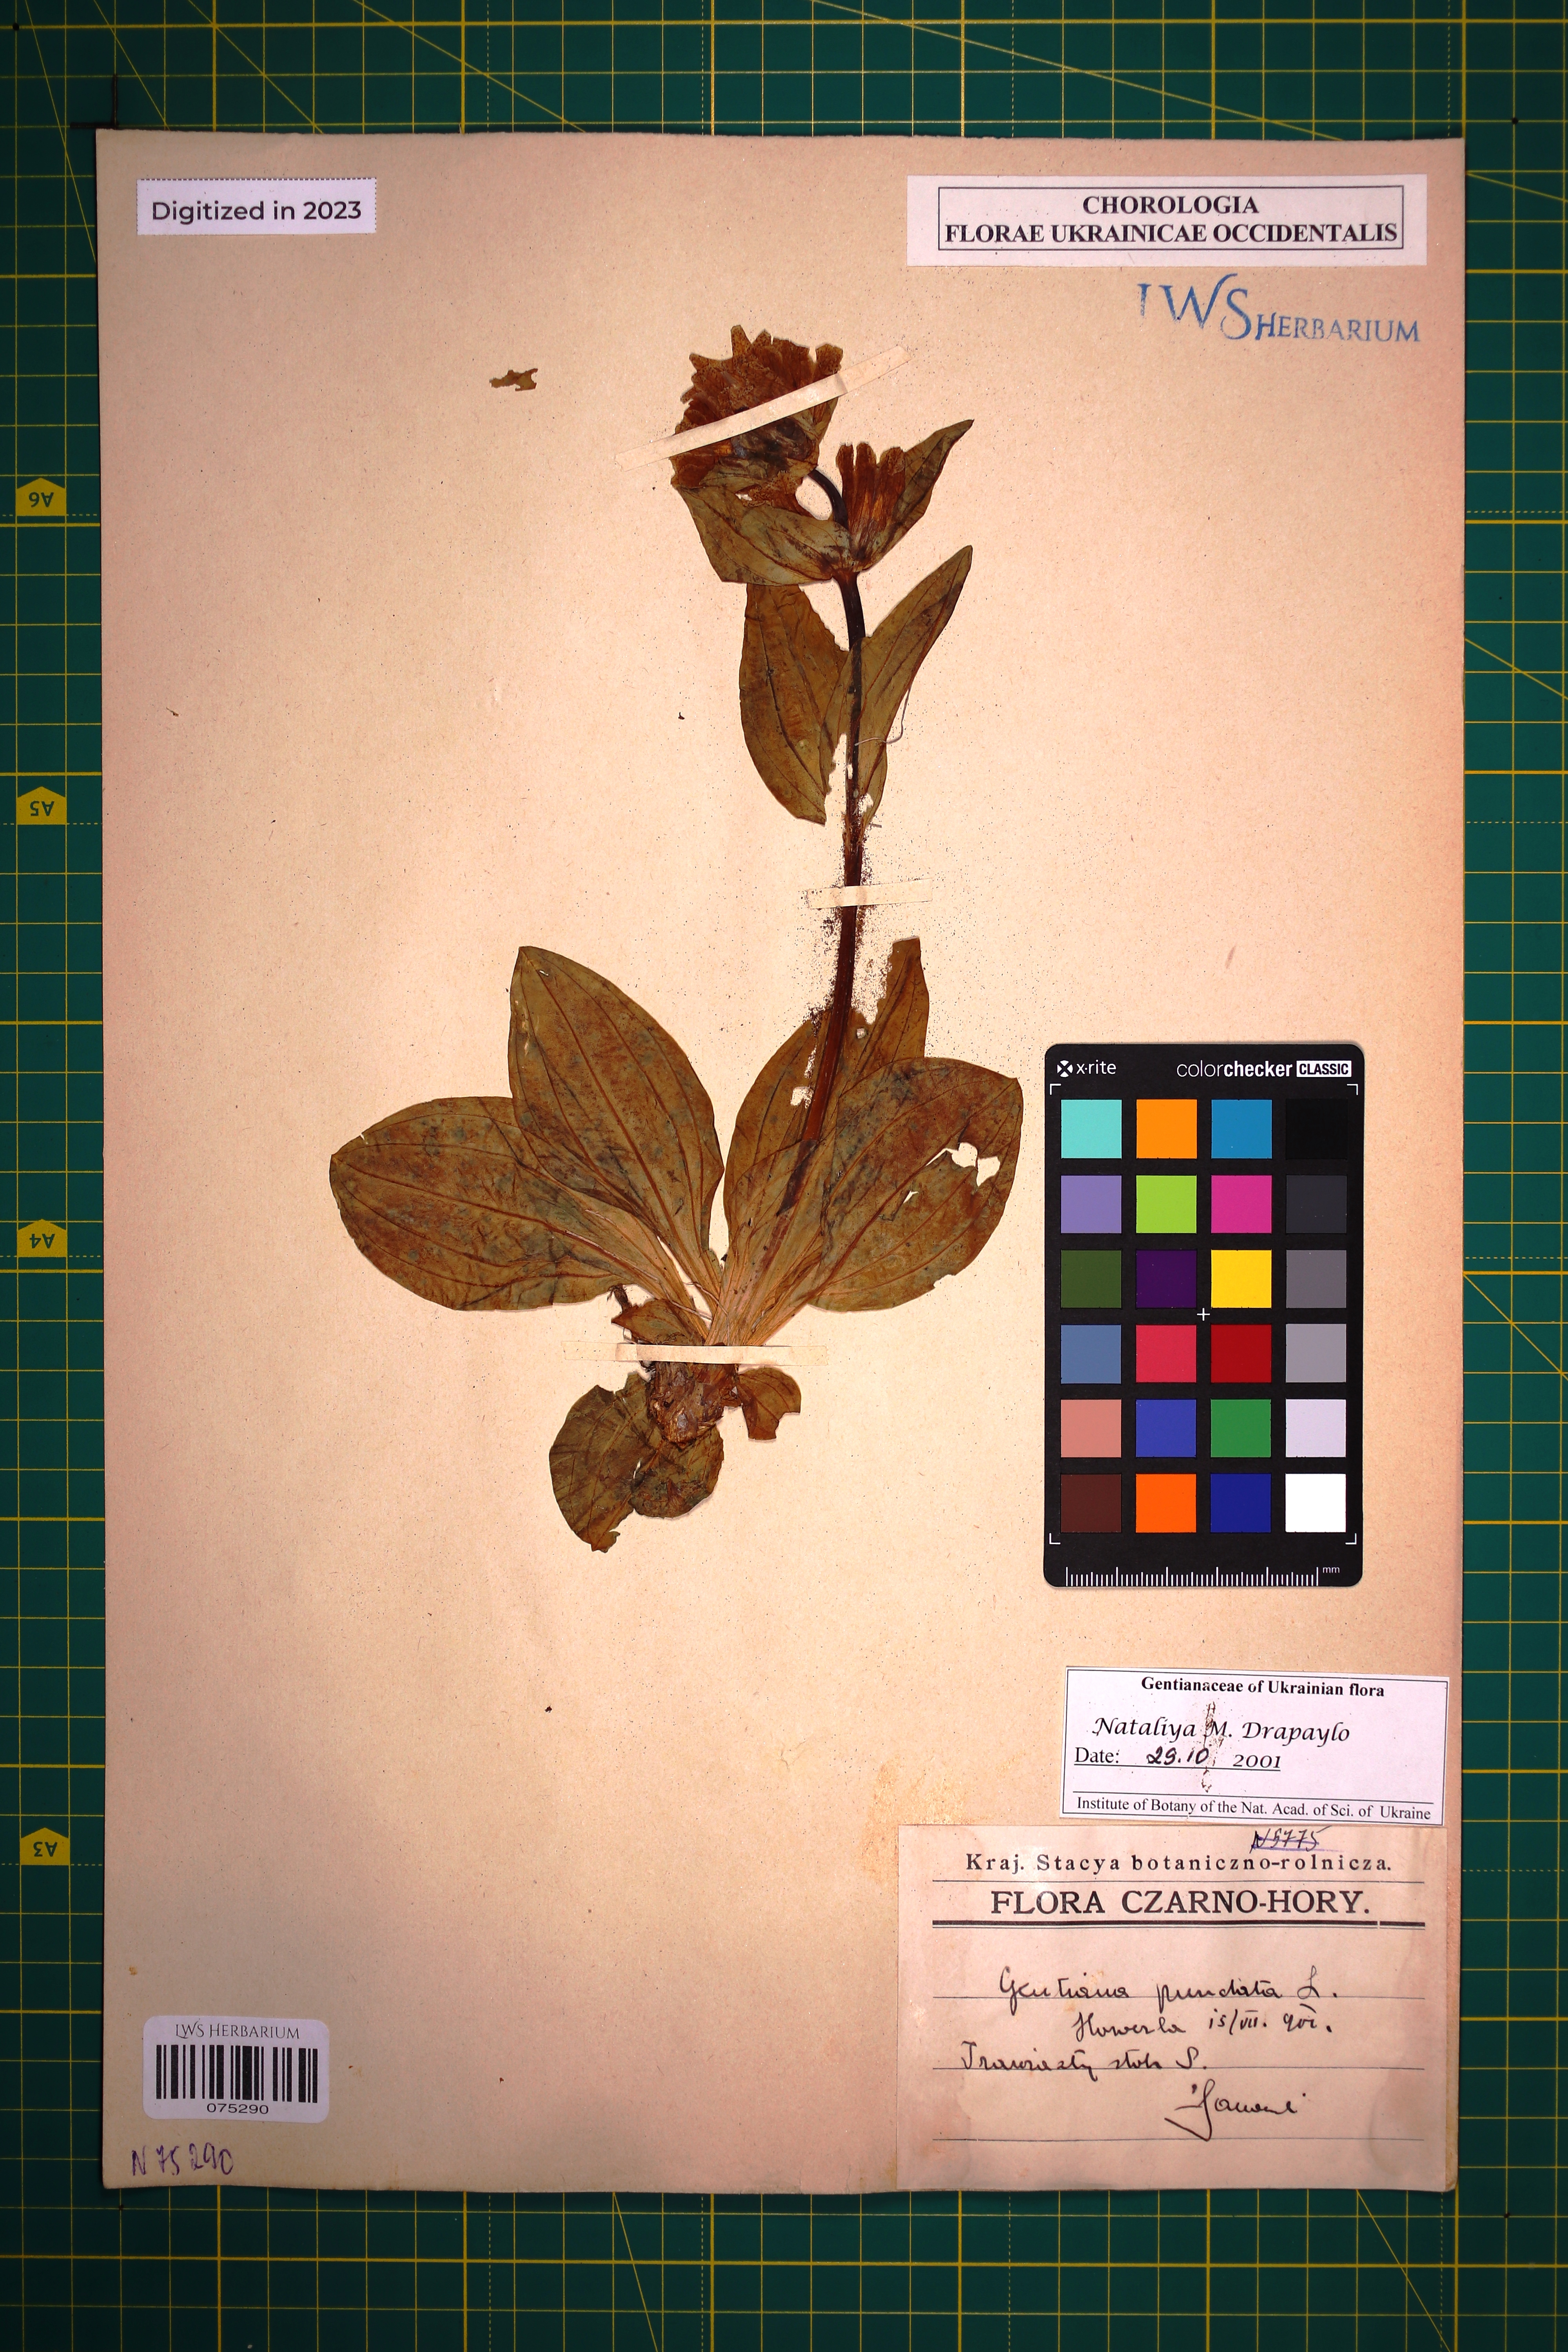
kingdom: Plantae
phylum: Tracheophyta
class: Magnoliopsida
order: Gentianales
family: Gentianaceae
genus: Gentiana
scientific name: Gentiana punctata
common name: Spotted gentian
